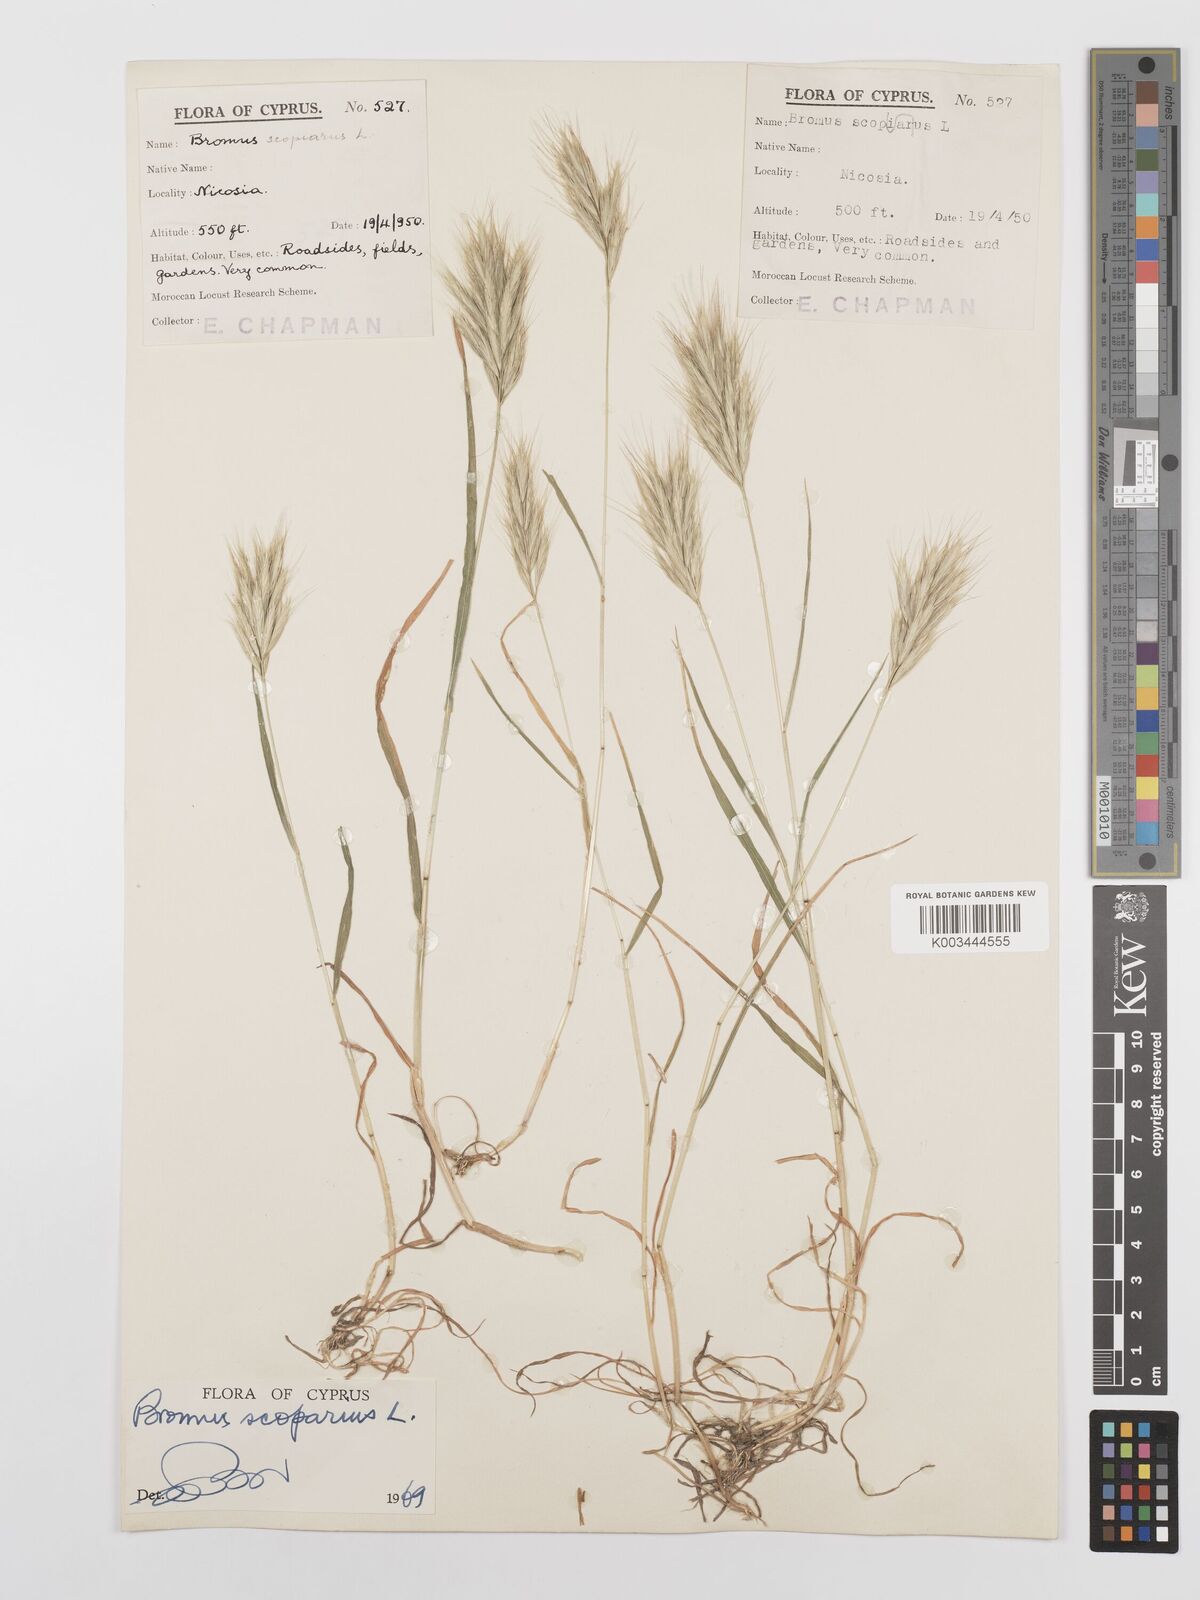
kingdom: Plantae
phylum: Tracheophyta
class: Liliopsida
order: Poales
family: Poaceae
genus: Bromus
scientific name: Bromus scoparius
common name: Broom brome
